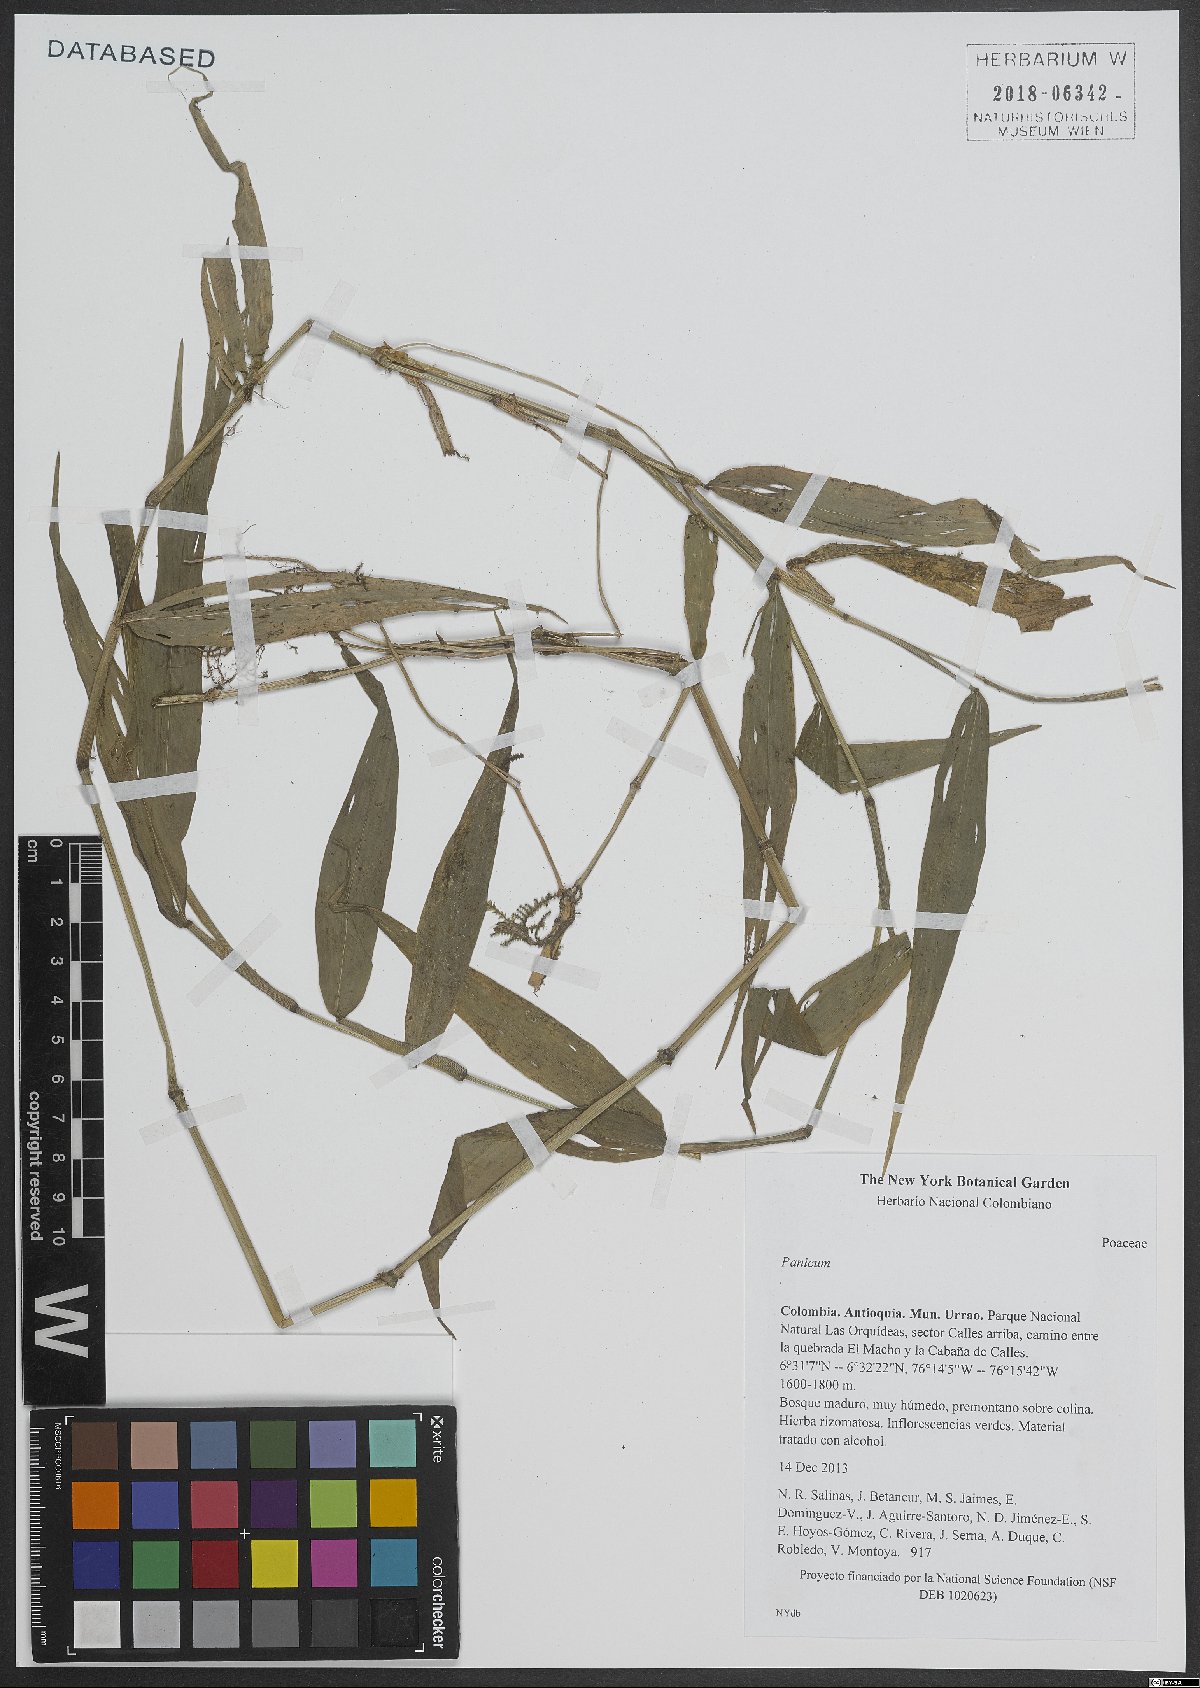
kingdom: Plantae
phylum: Tracheophyta
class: Liliopsida
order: Poales
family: Poaceae
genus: Panicum
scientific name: Panicum
